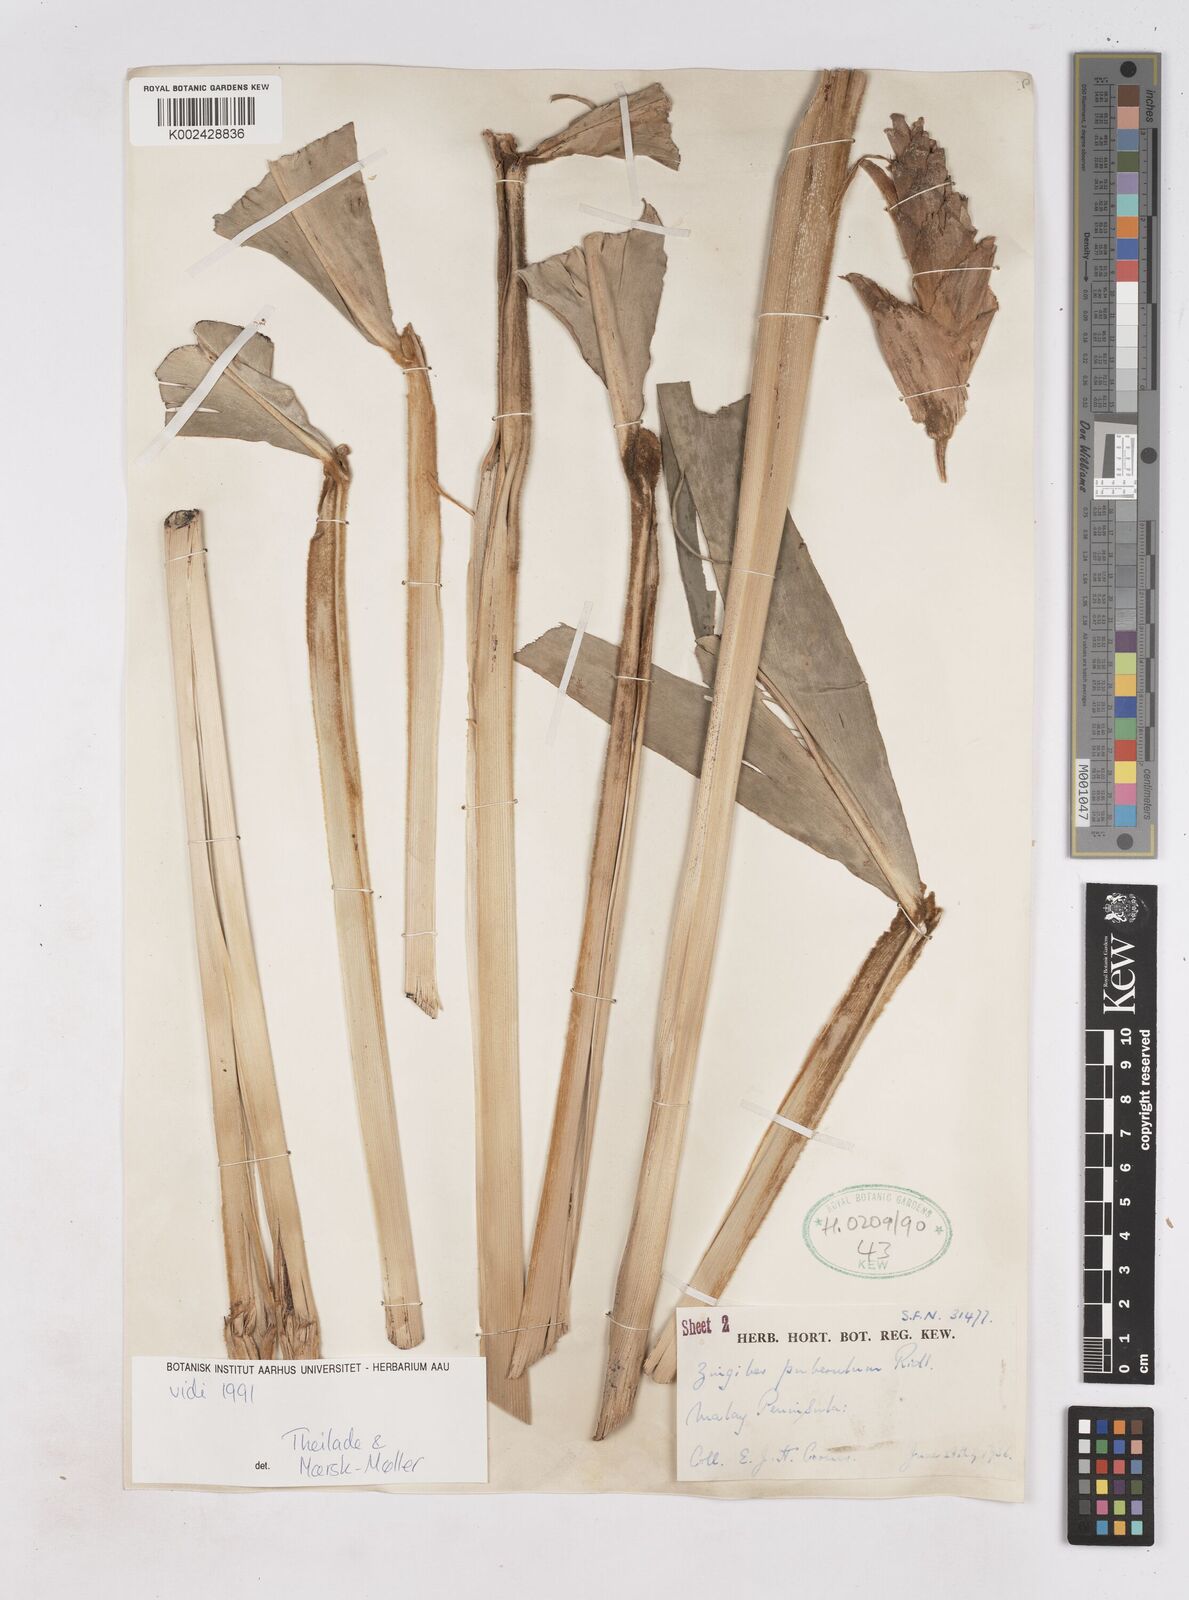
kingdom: Plantae
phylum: Tracheophyta
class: Liliopsida
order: Zingiberales
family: Zingiberaceae
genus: Zingiber
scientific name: Zingiber puberulum
